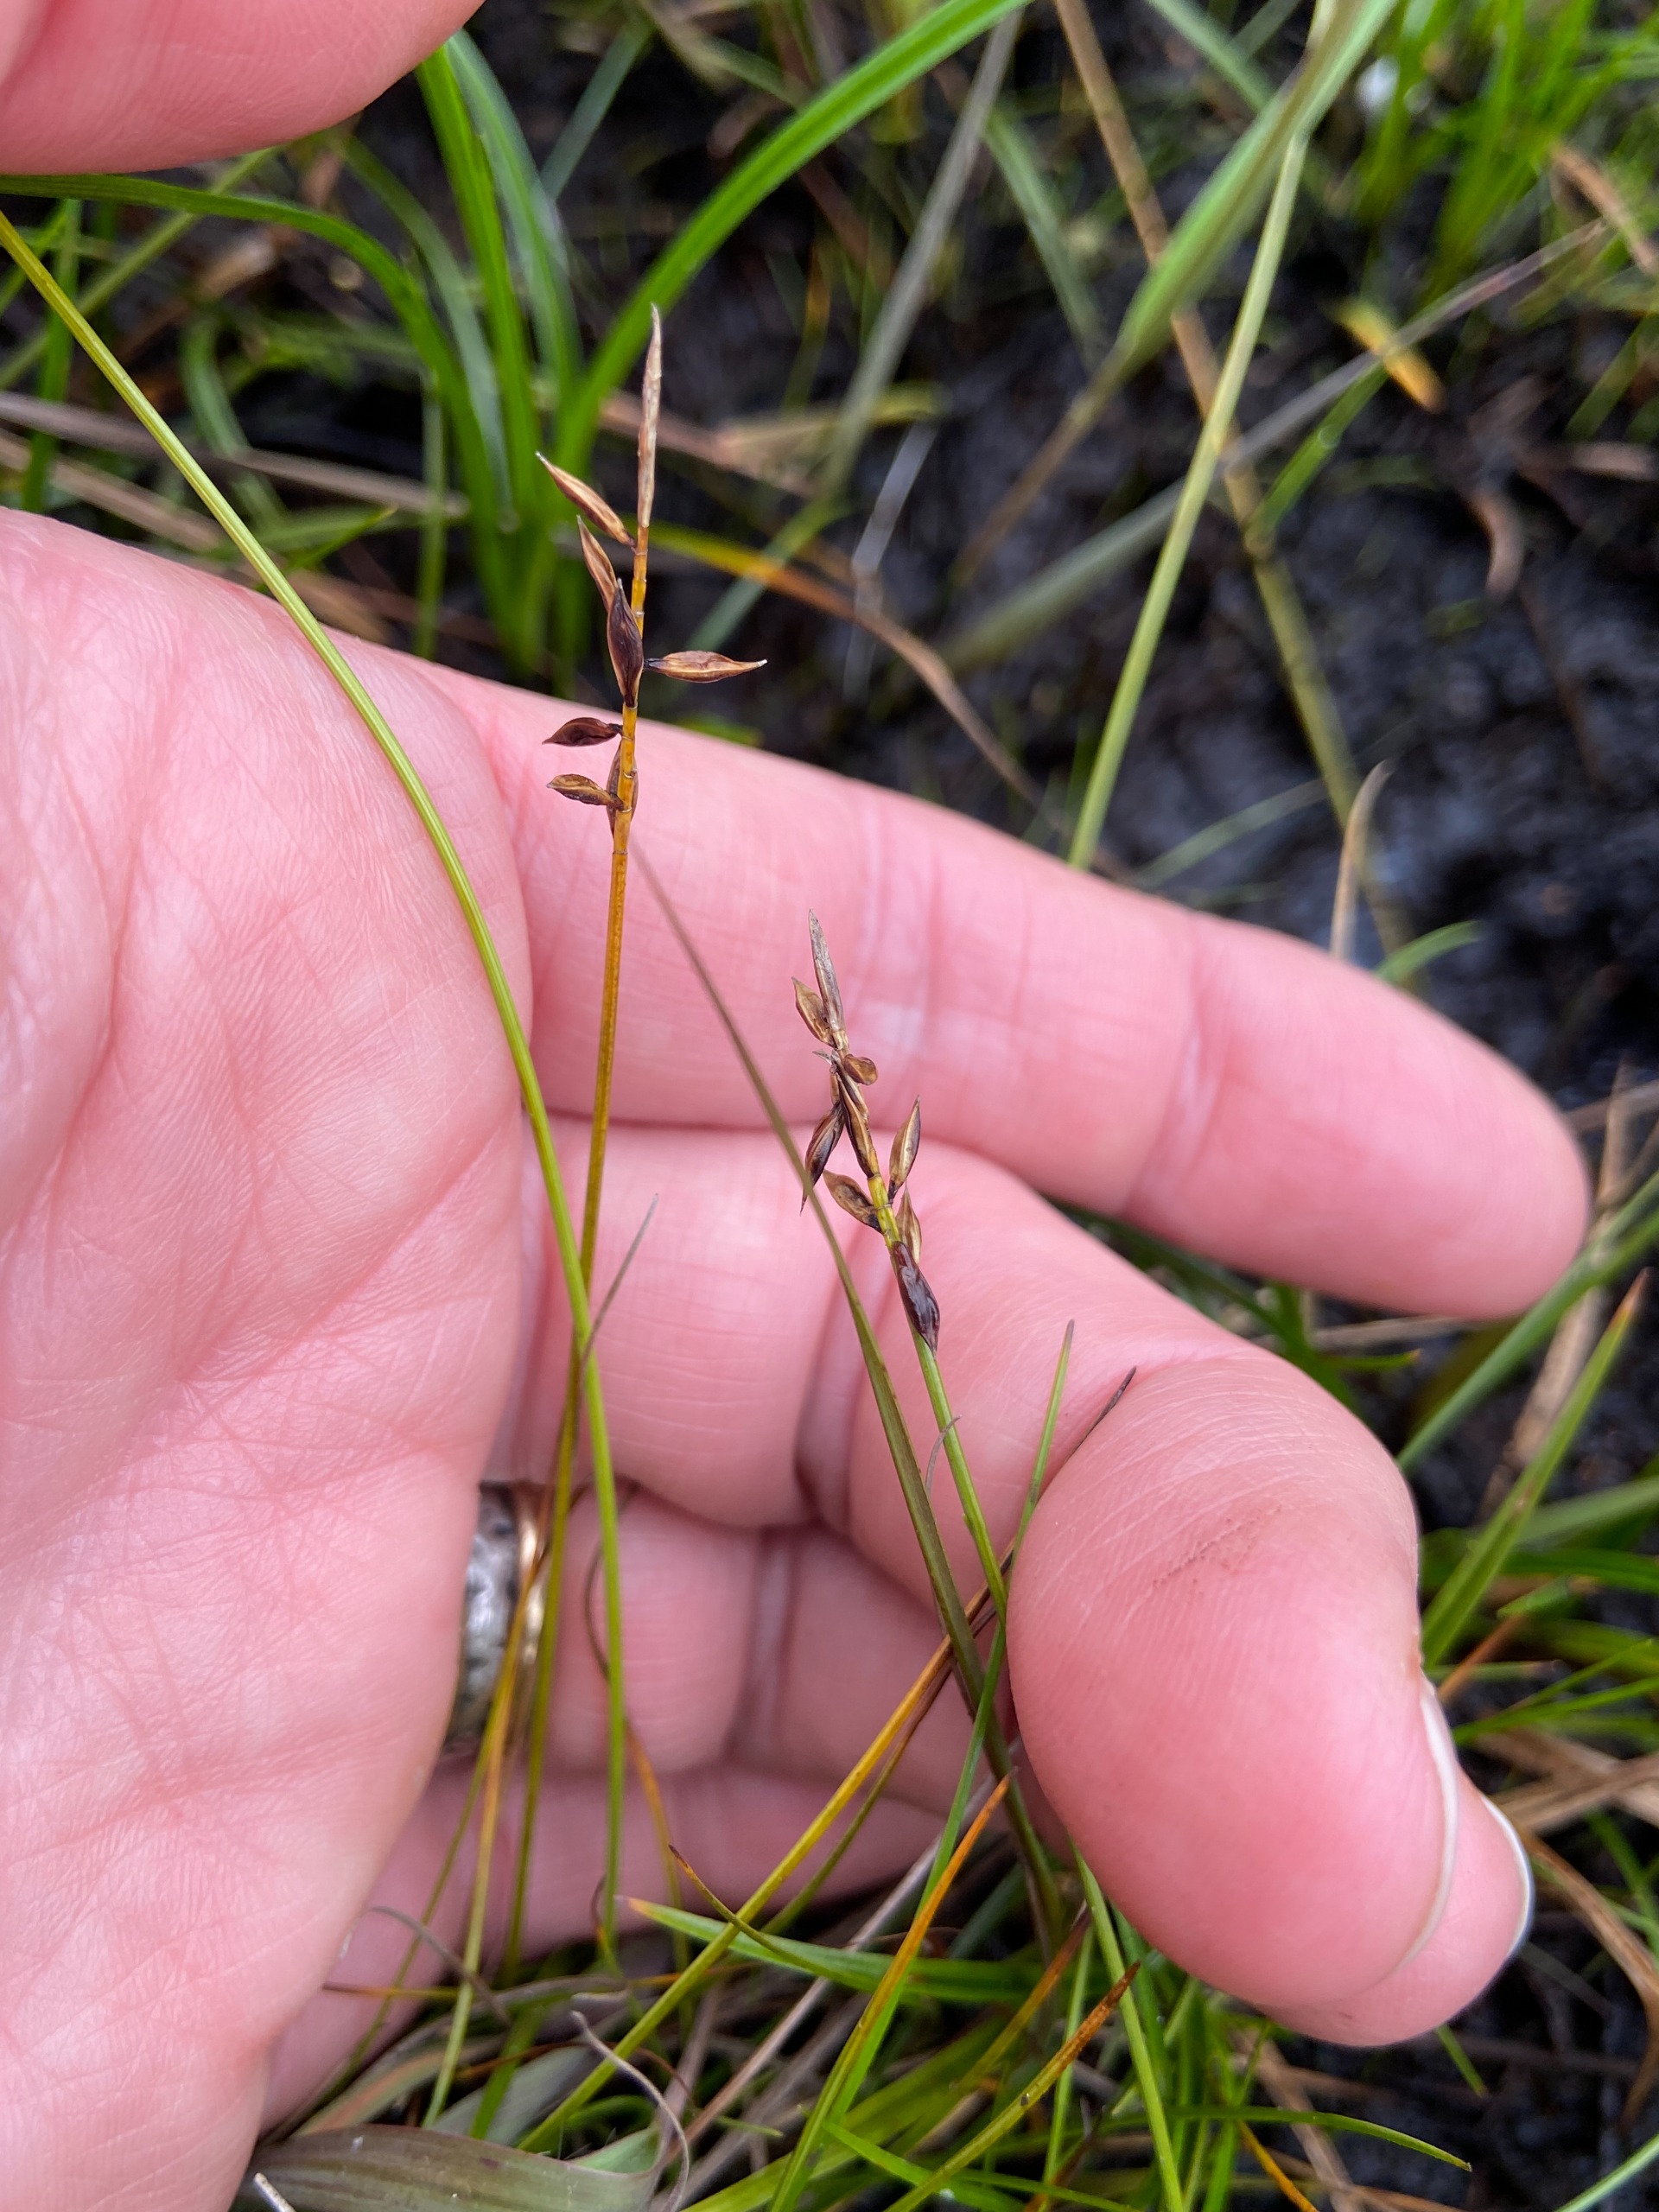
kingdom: Plantae
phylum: Tracheophyta
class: Liliopsida
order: Poales
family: Cyperaceae
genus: Carex
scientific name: Carex pulicaris
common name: Loppe-star
